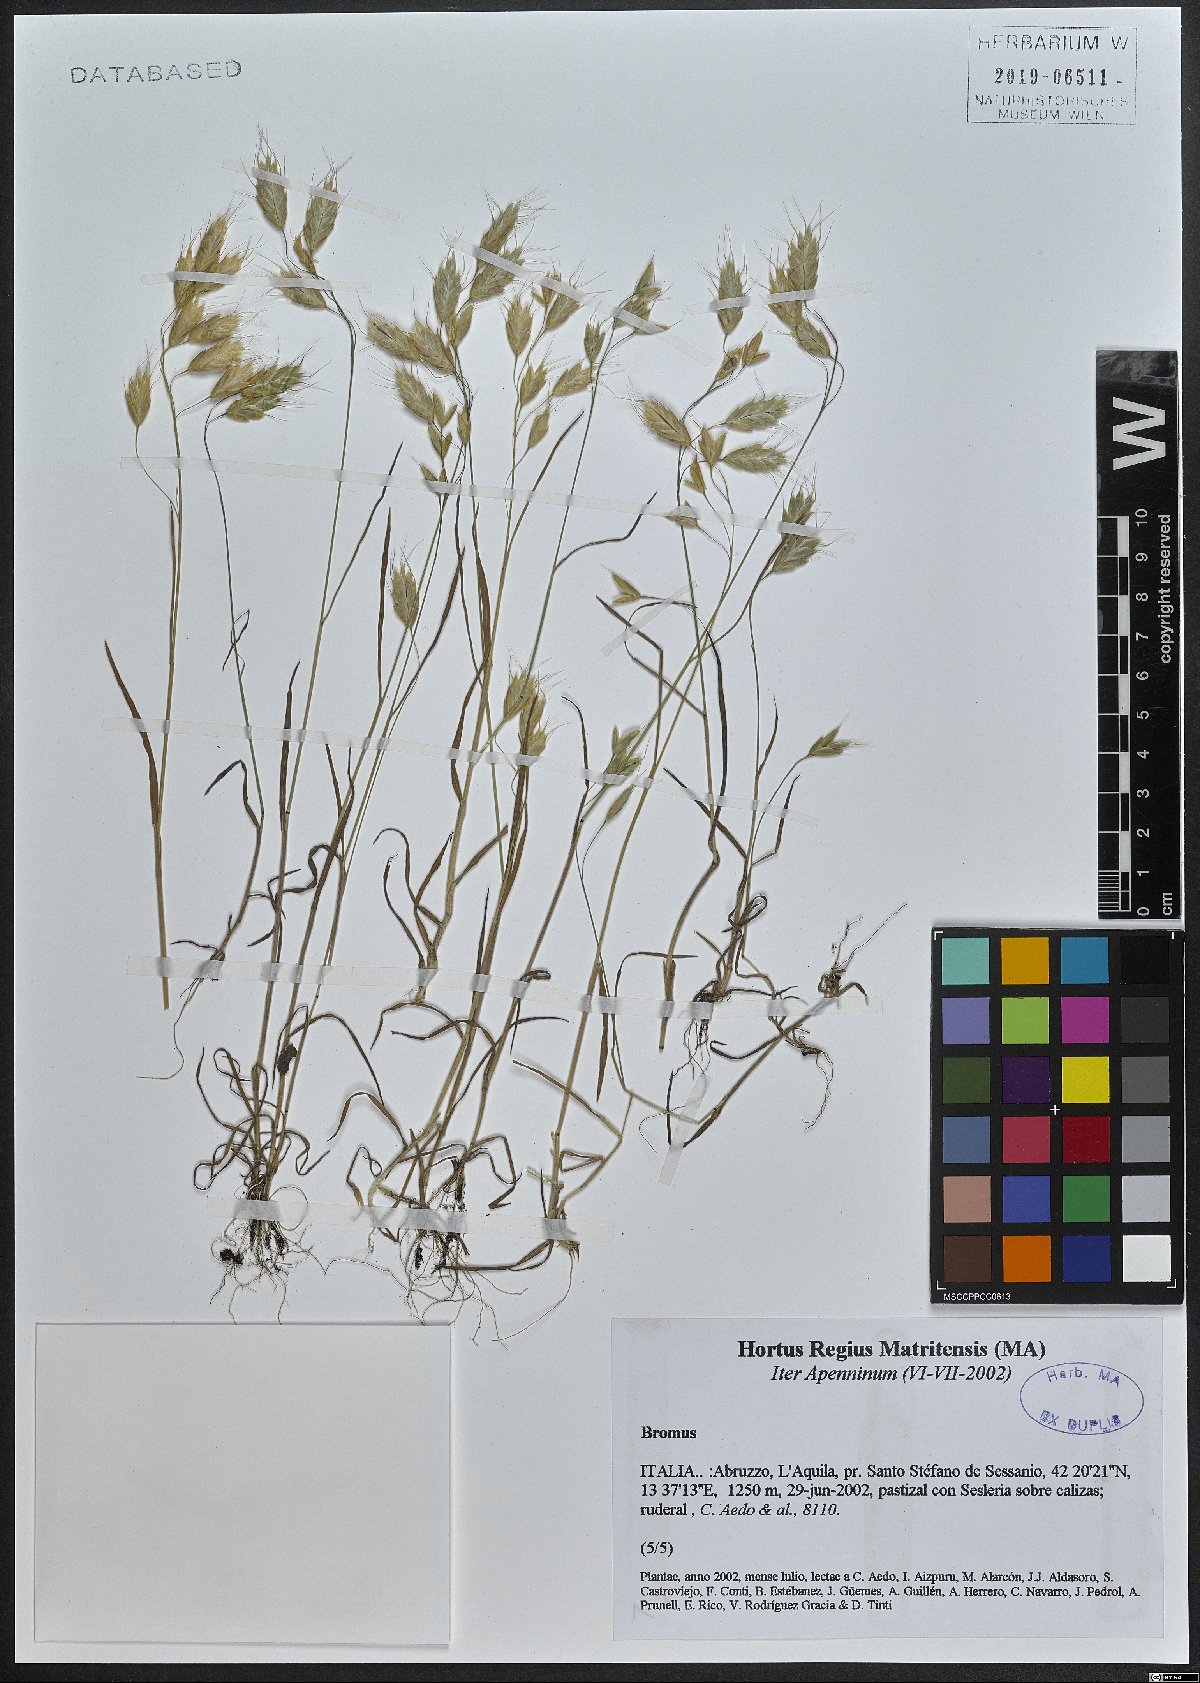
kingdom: Plantae
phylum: Tracheophyta
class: Liliopsida
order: Poales
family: Poaceae
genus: Bromus
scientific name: Bromus
